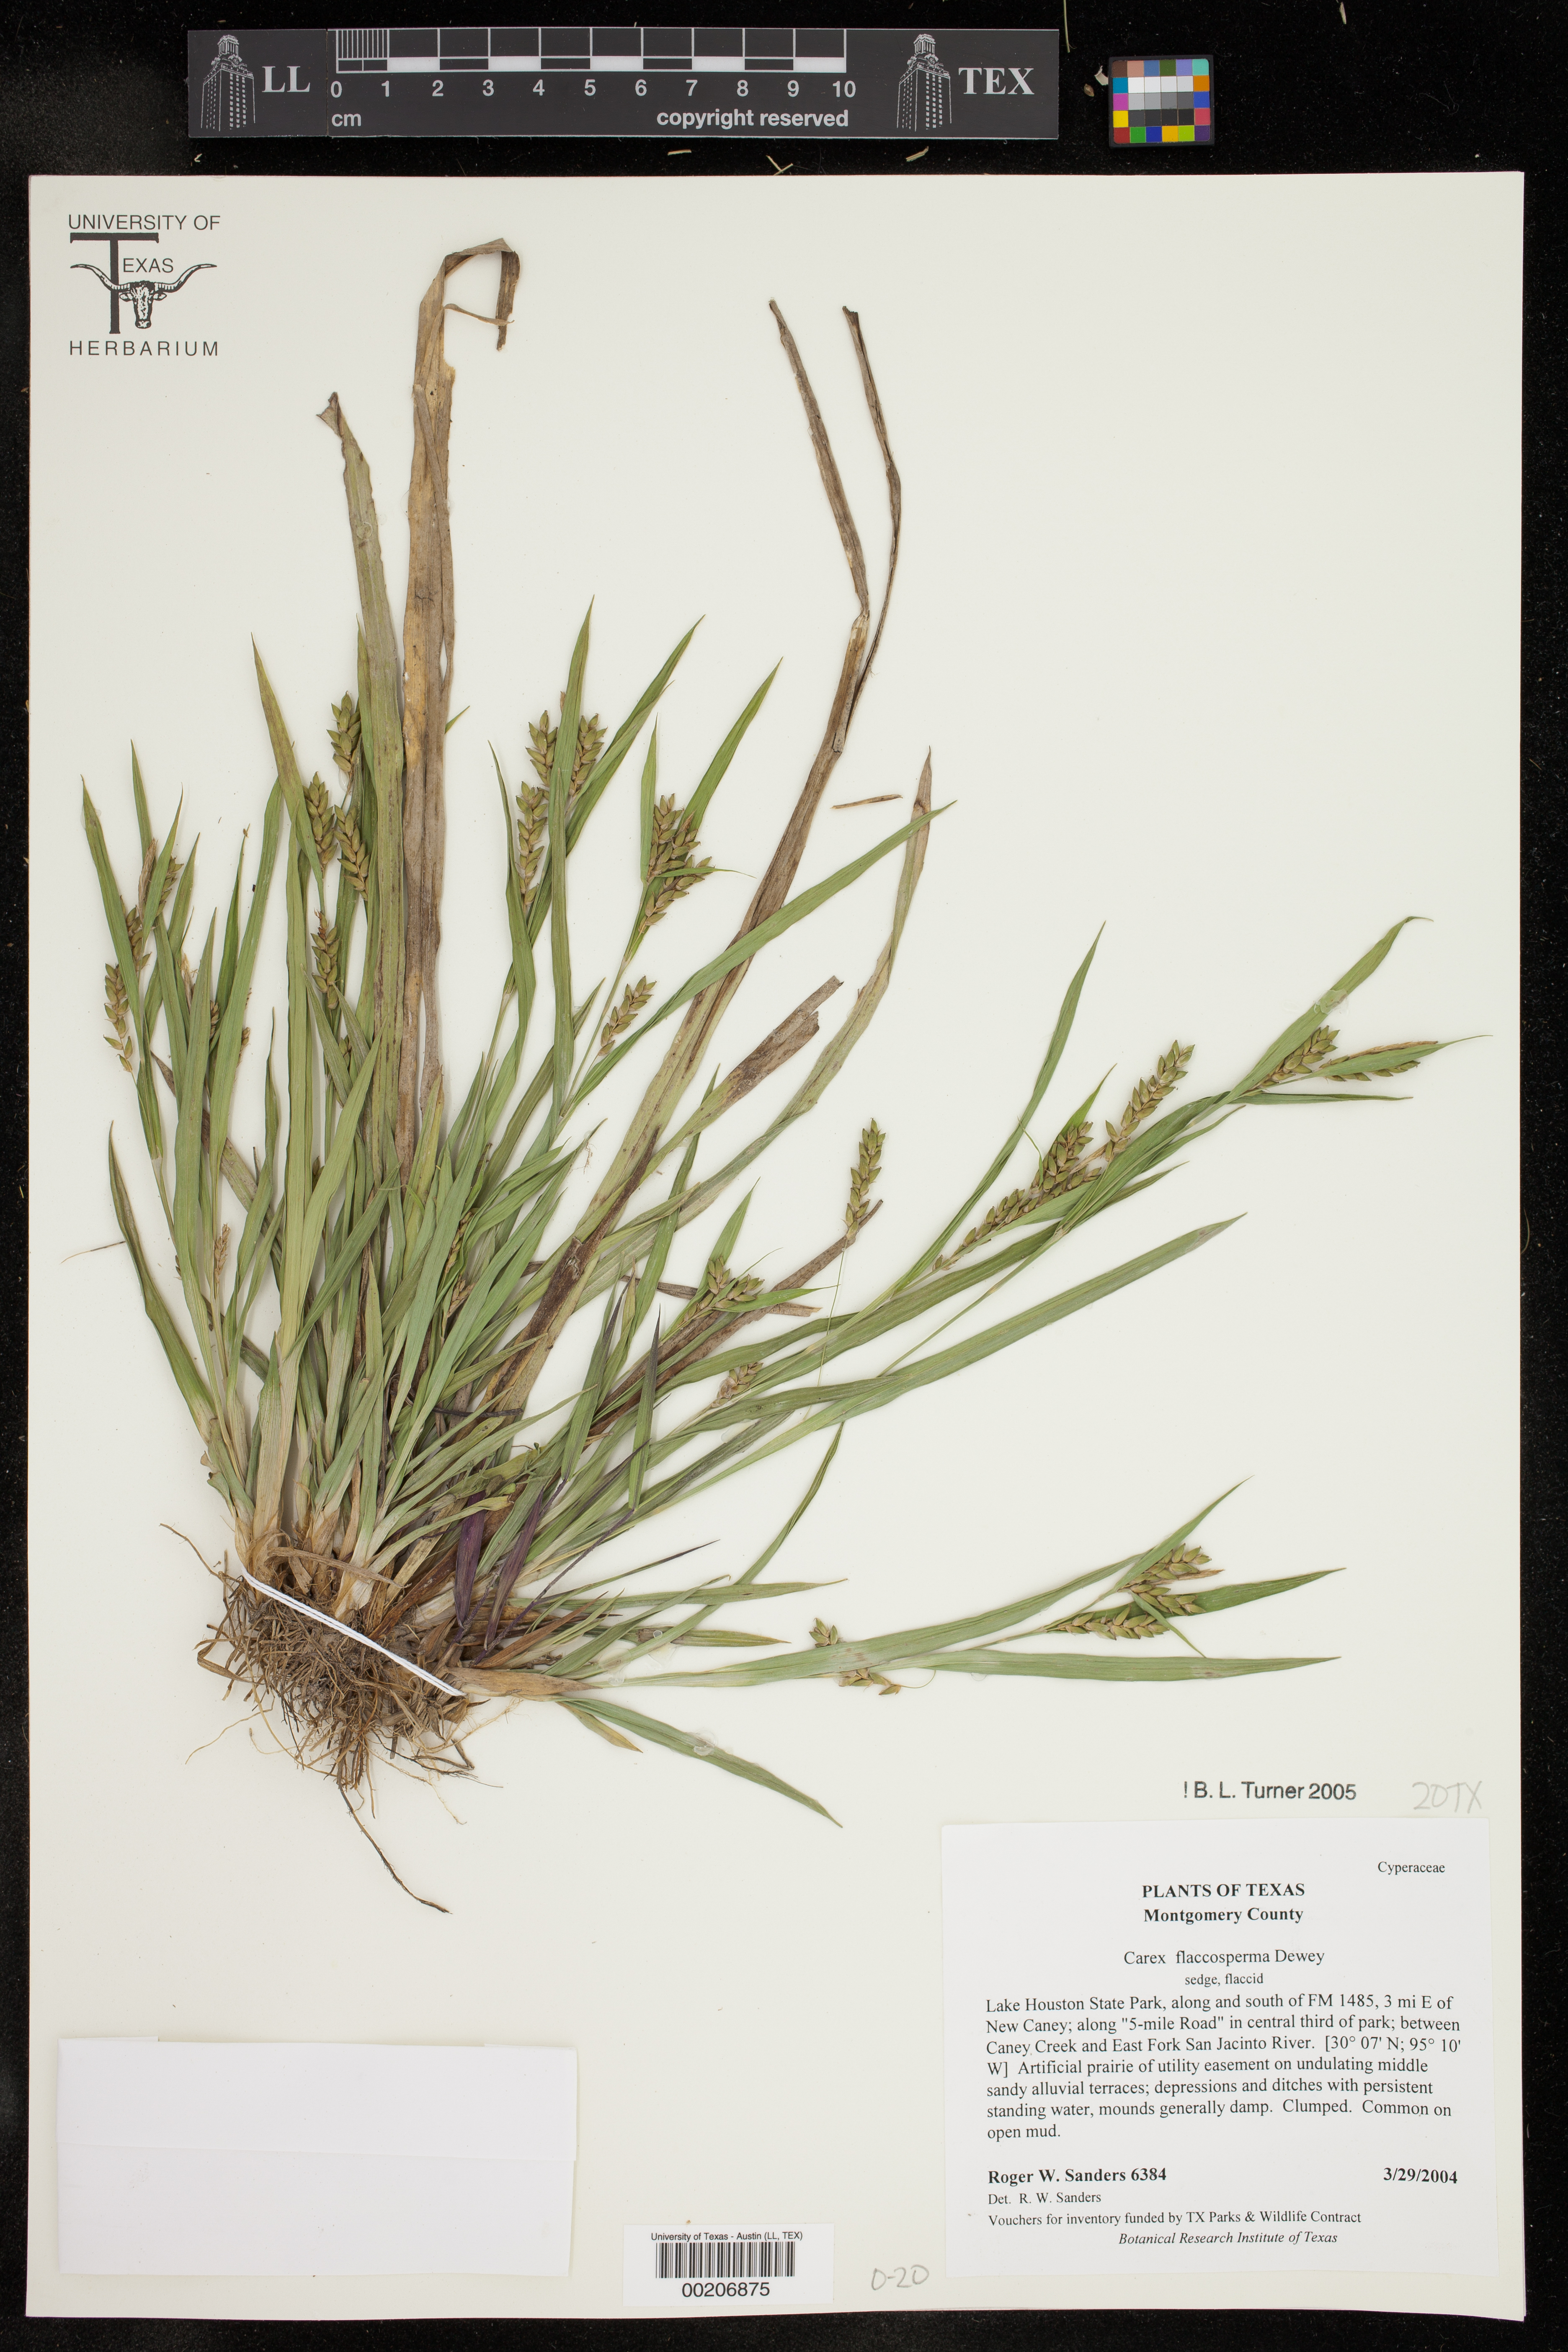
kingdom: Plantae
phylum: Tracheophyta
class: Liliopsida
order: Poales
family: Cyperaceae
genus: Carex
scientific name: Carex flaccosperma
